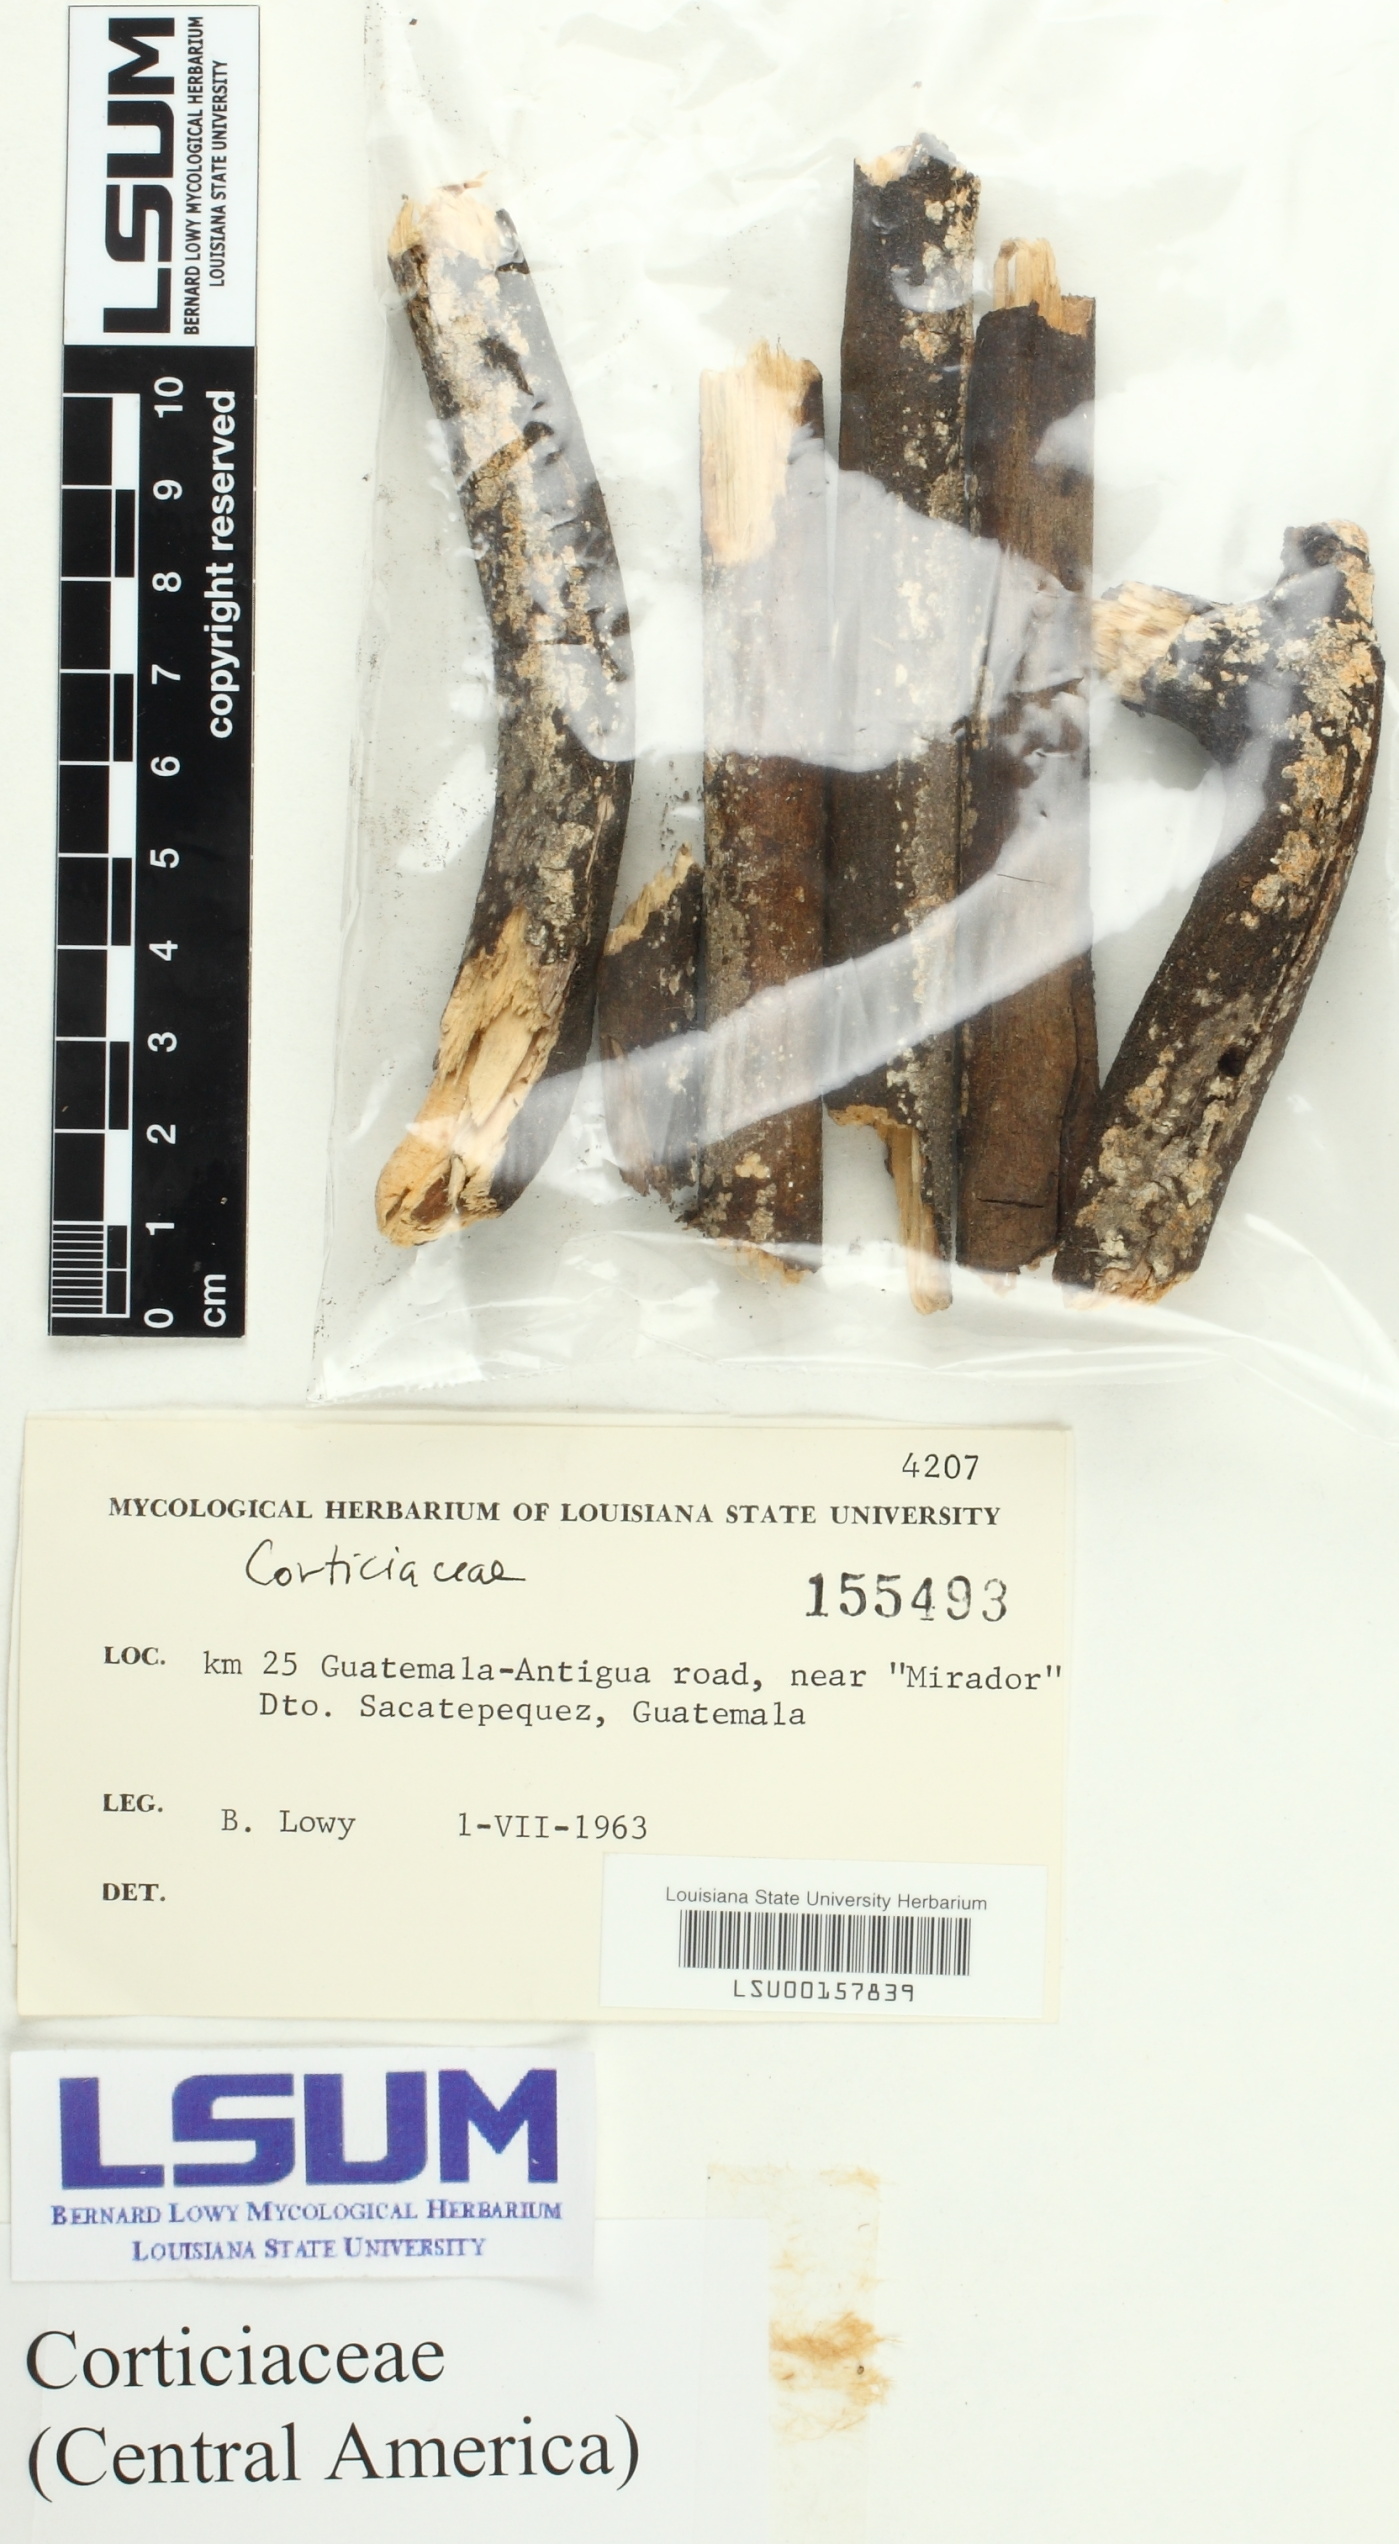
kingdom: Fungi
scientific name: Fungi
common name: Fungi
